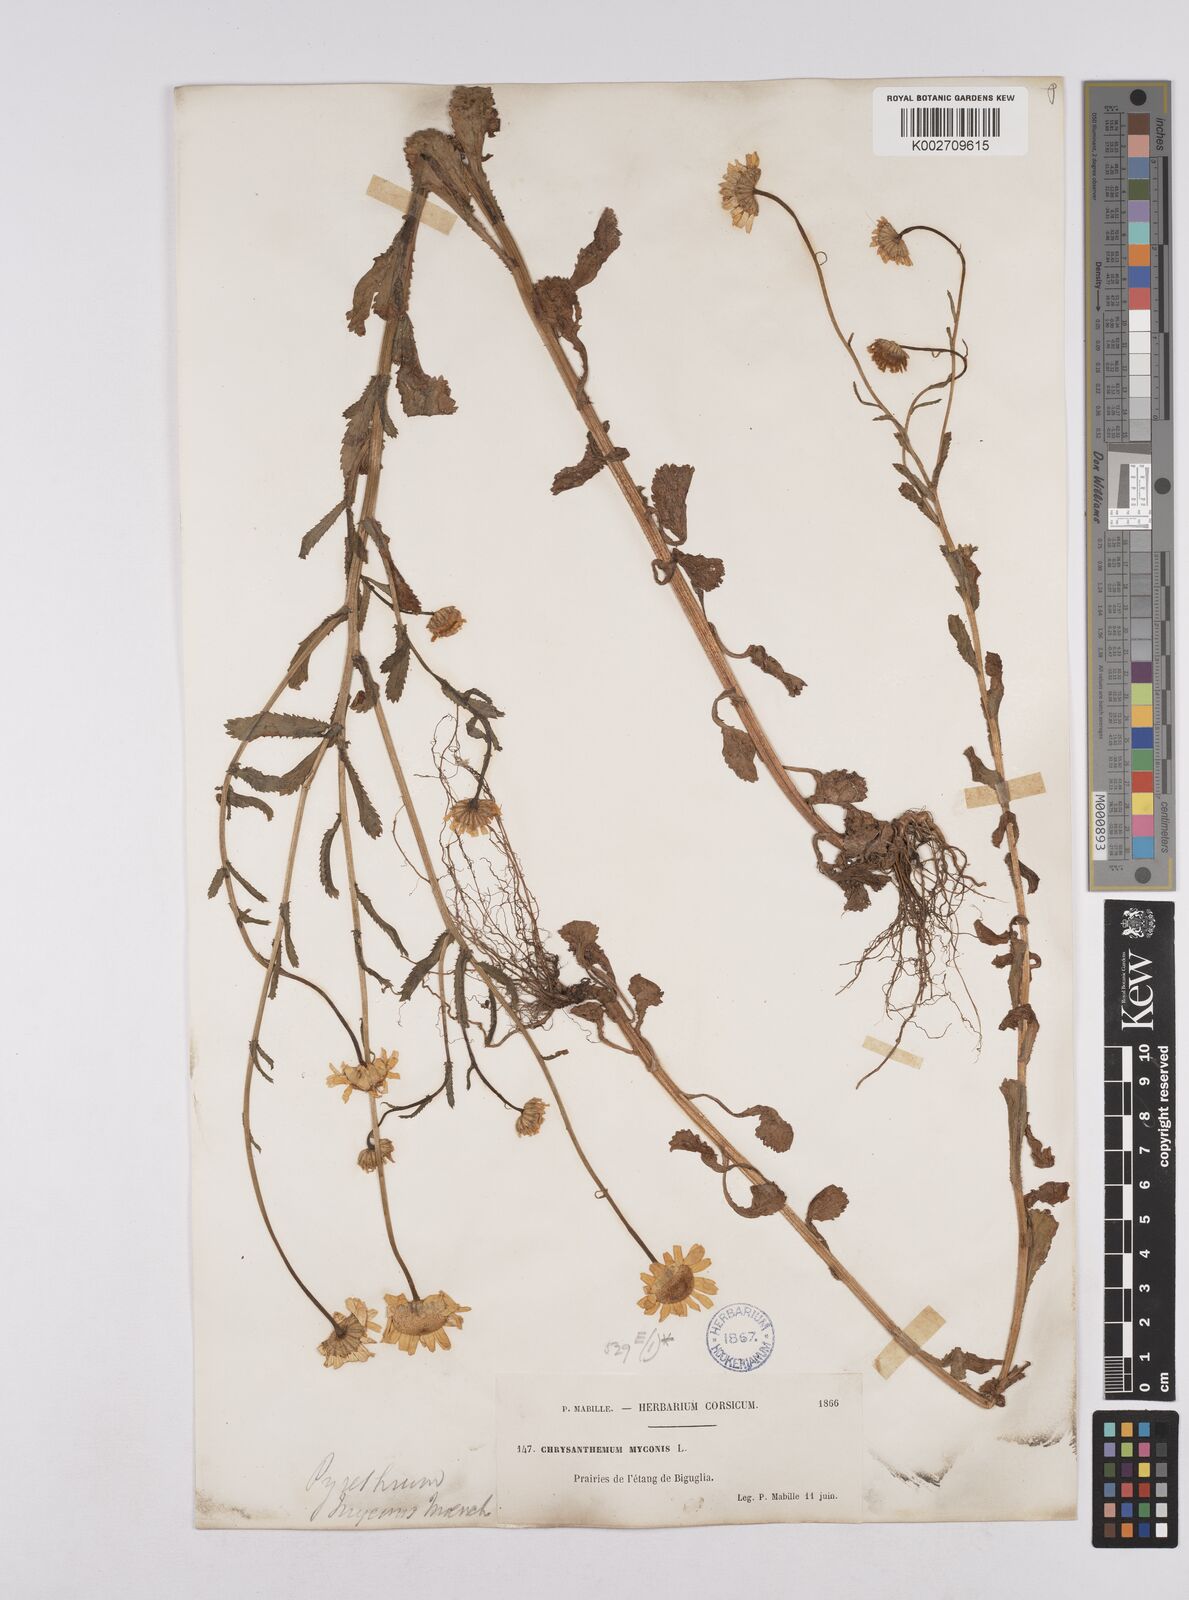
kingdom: Plantae
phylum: Tracheophyta
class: Magnoliopsida
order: Asterales
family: Asteraceae
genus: Coleostephus
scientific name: Coleostephus myconis
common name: Mediterranean marigold
